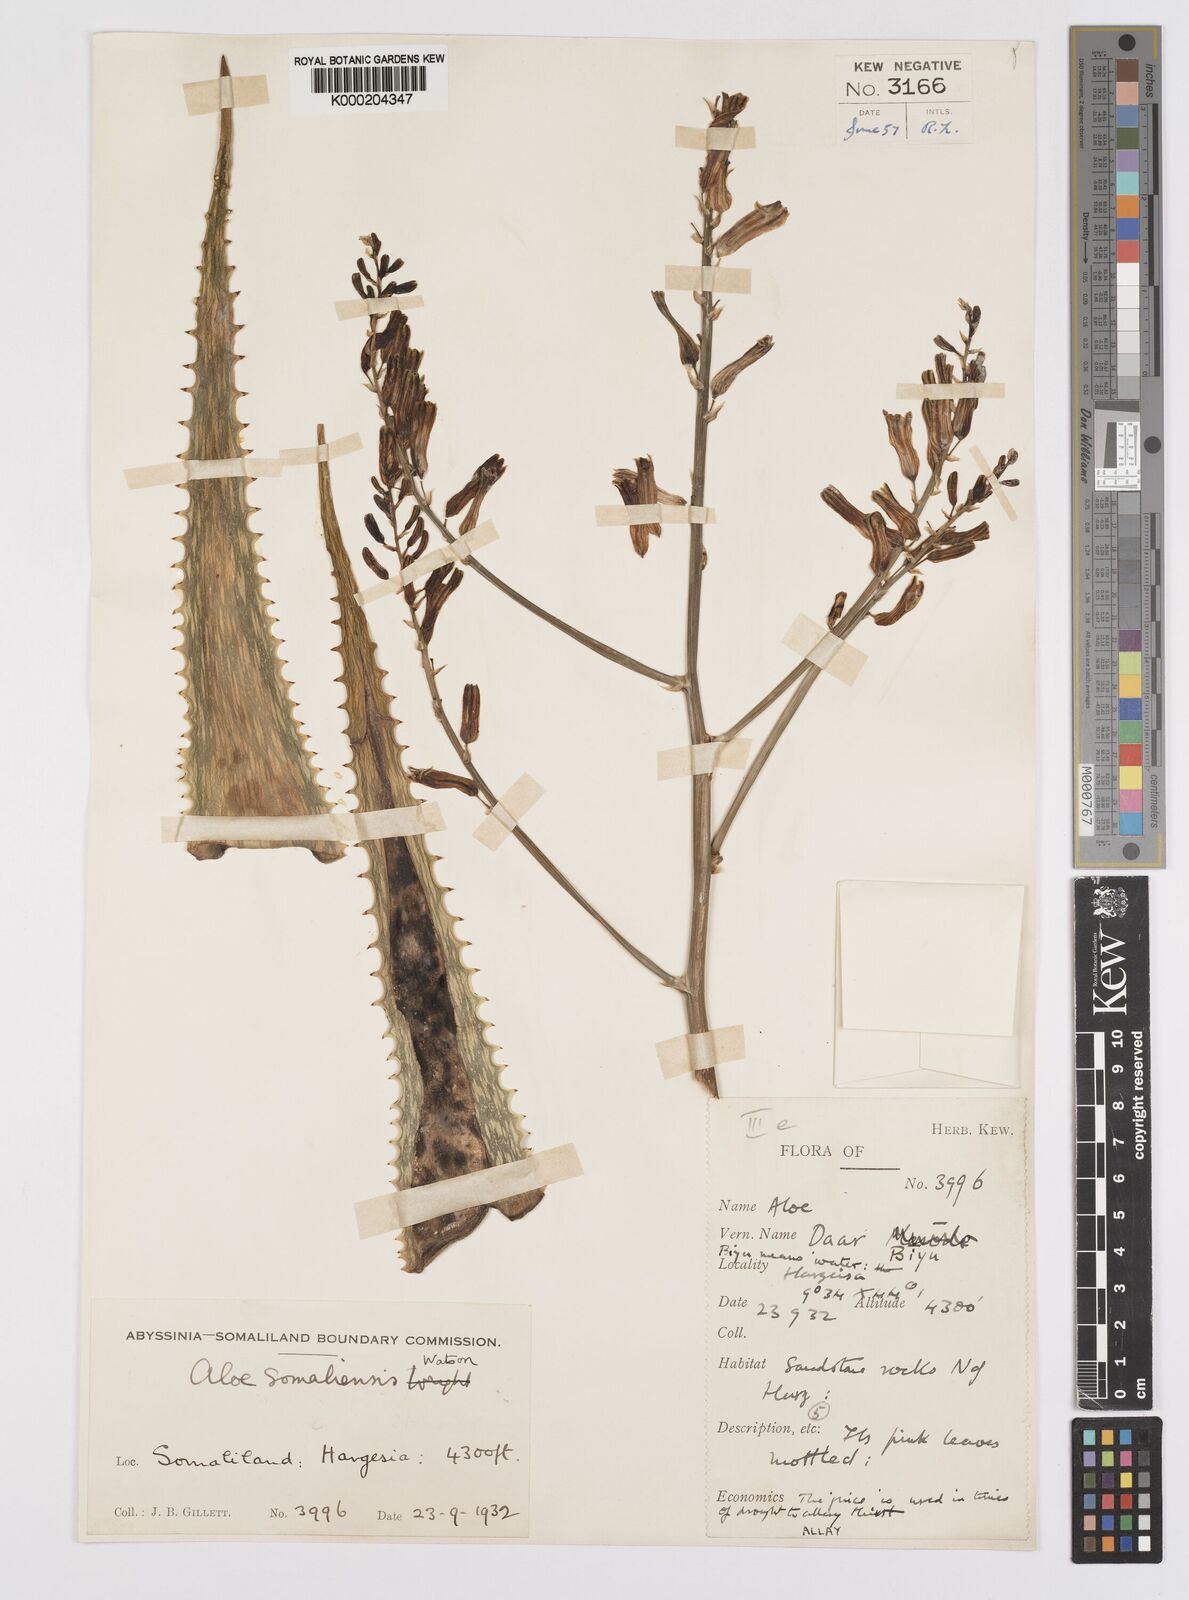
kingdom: Plantae
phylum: Tracheophyta
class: Liliopsida
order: Asparagales
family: Asphodelaceae
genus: Aloe
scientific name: Aloe somaliensis
